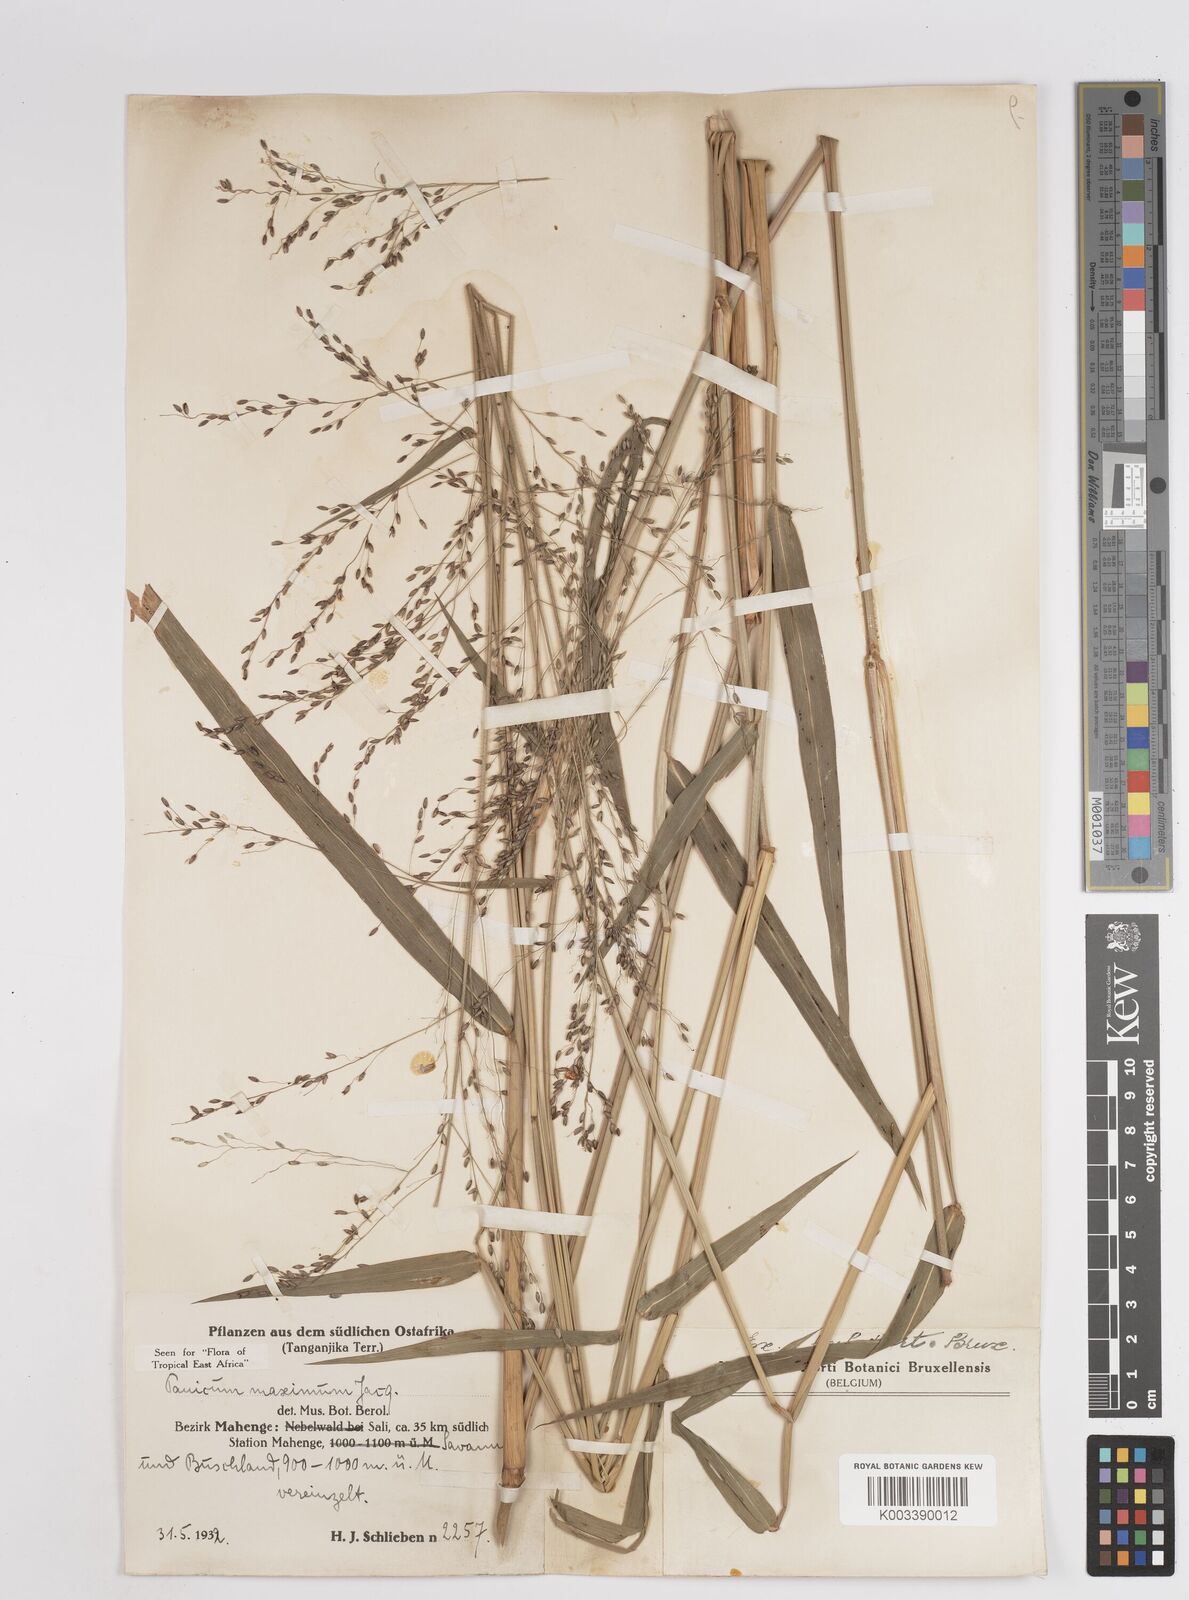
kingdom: Plantae
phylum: Tracheophyta
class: Liliopsida
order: Poales
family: Poaceae
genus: Megathyrsus
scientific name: Megathyrsus maximus
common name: Guineagrass
